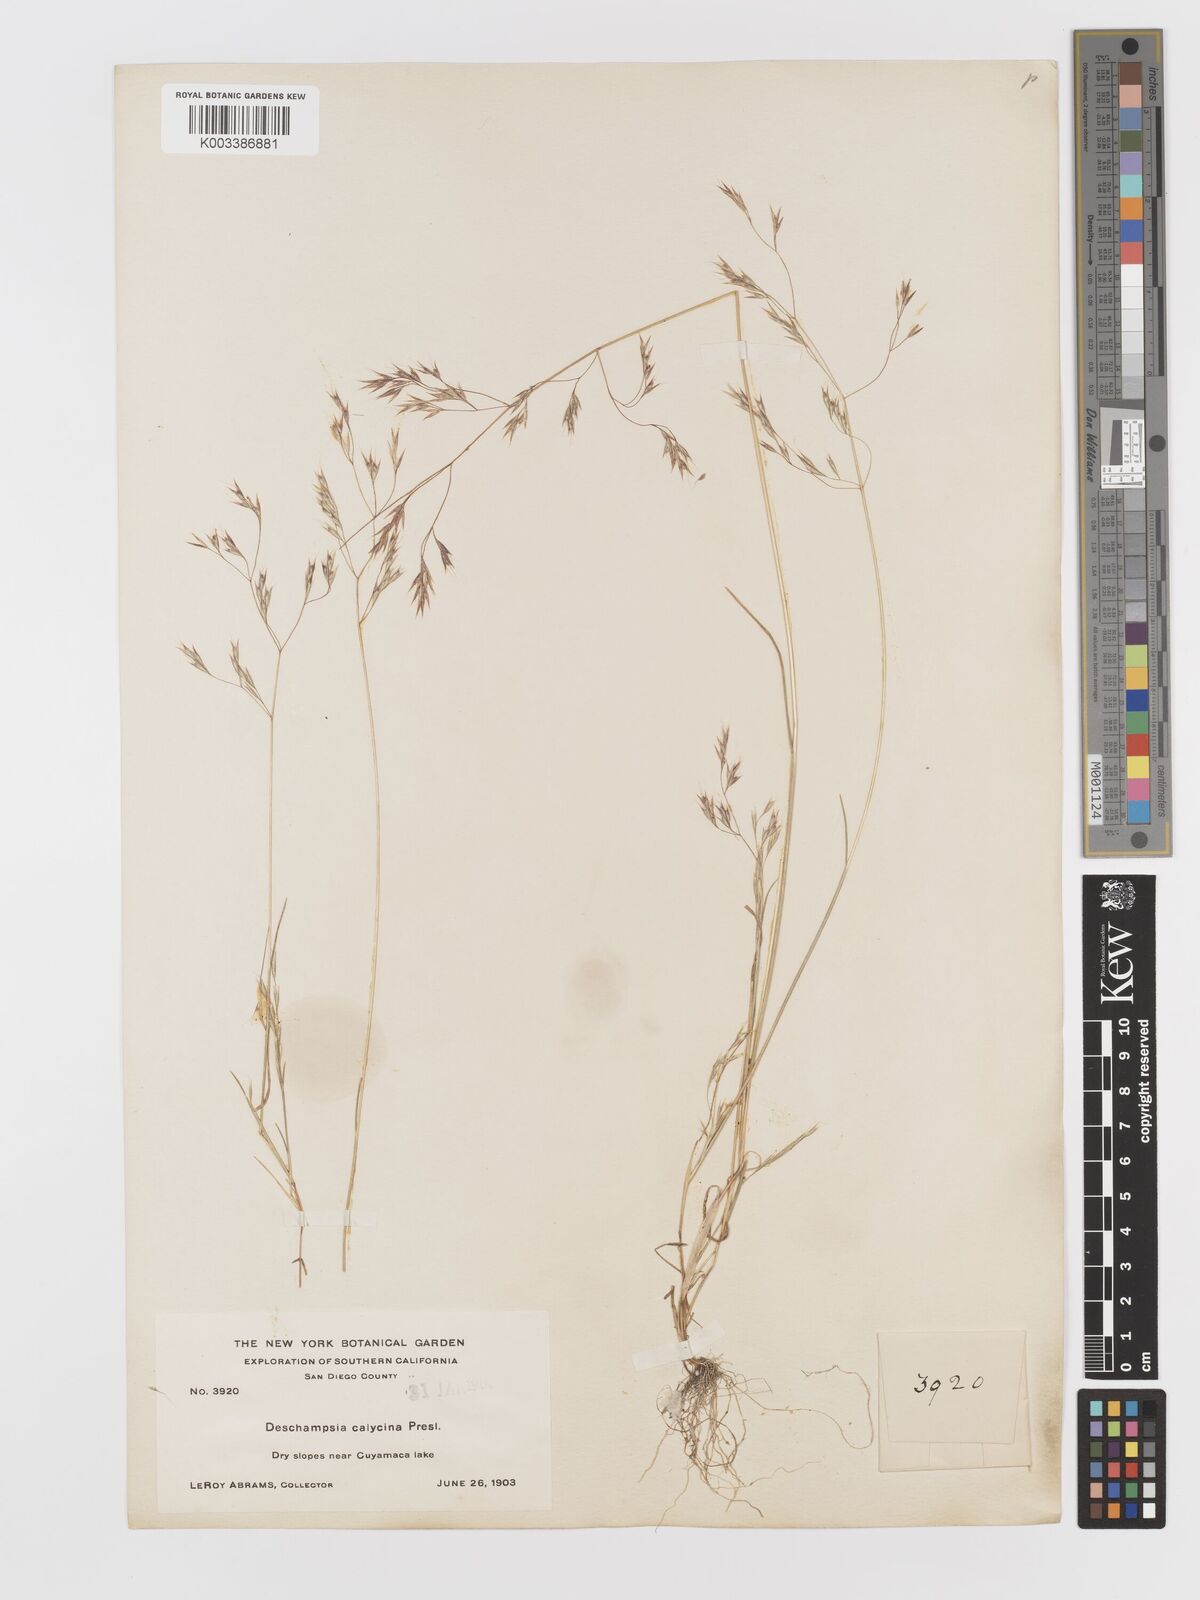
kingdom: Plantae
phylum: Tracheophyta
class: Liliopsida
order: Poales
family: Poaceae
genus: Deschampsia
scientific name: Deschampsia danthonioides
